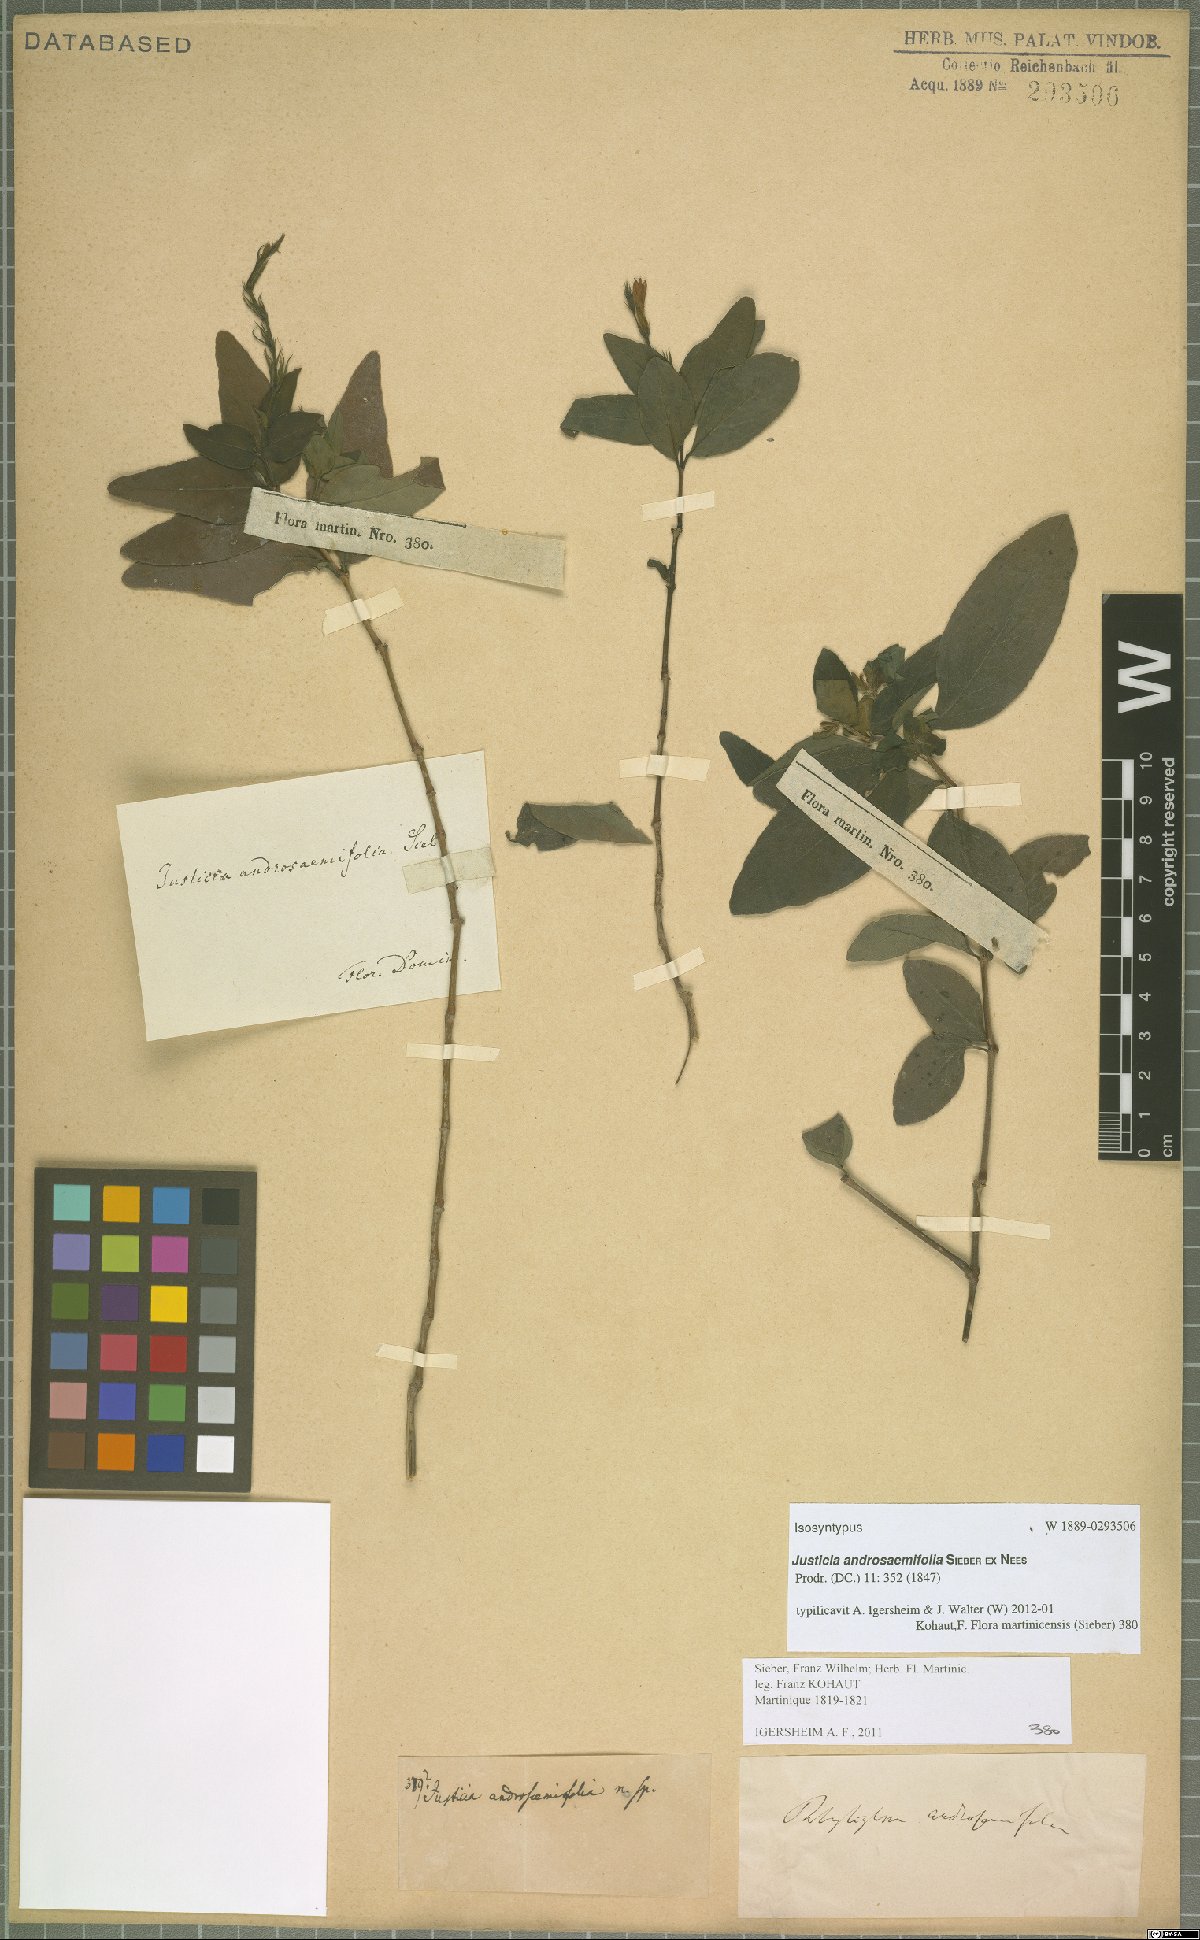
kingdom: Plantae
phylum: Tracheophyta
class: Magnoliopsida
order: Lamiales
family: Acanthaceae
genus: Dianthera
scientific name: Dianthera androsaemifolia
